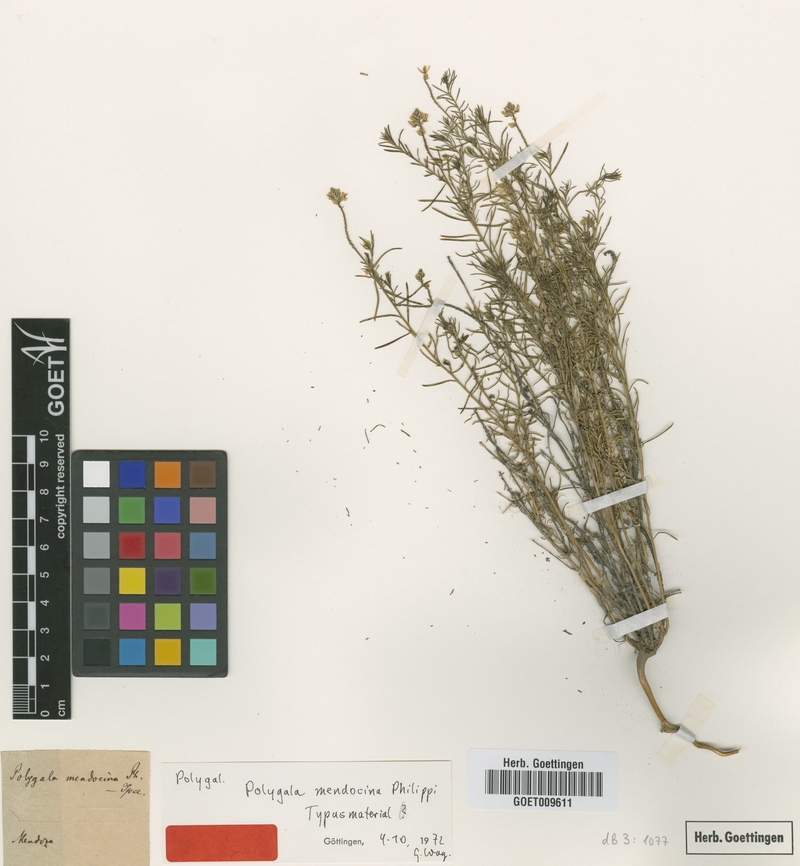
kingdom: Plantae
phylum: Tracheophyta
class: Magnoliopsida
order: Fabales
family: Polygalaceae
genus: Polygala
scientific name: Polygala subandina
